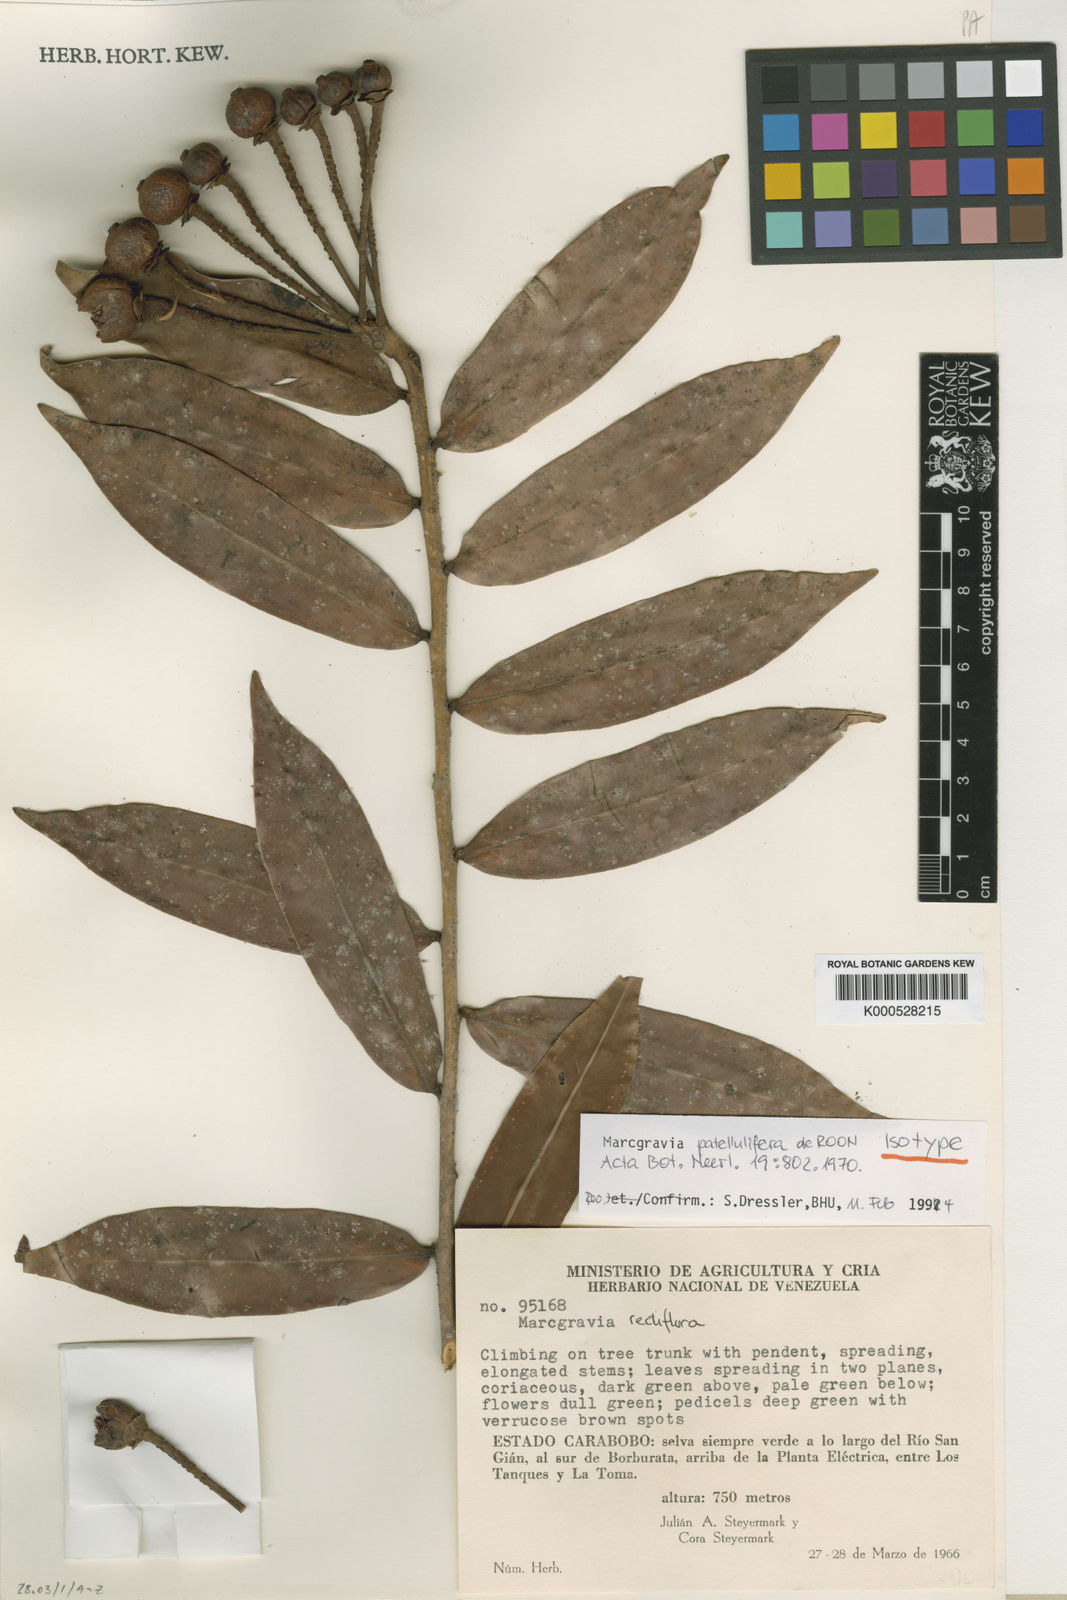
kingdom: Plantae
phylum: Tracheophyta
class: Magnoliopsida
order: Ericales
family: Marcgraviaceae
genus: Marcgravia
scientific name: Marcgravia patellulifera
